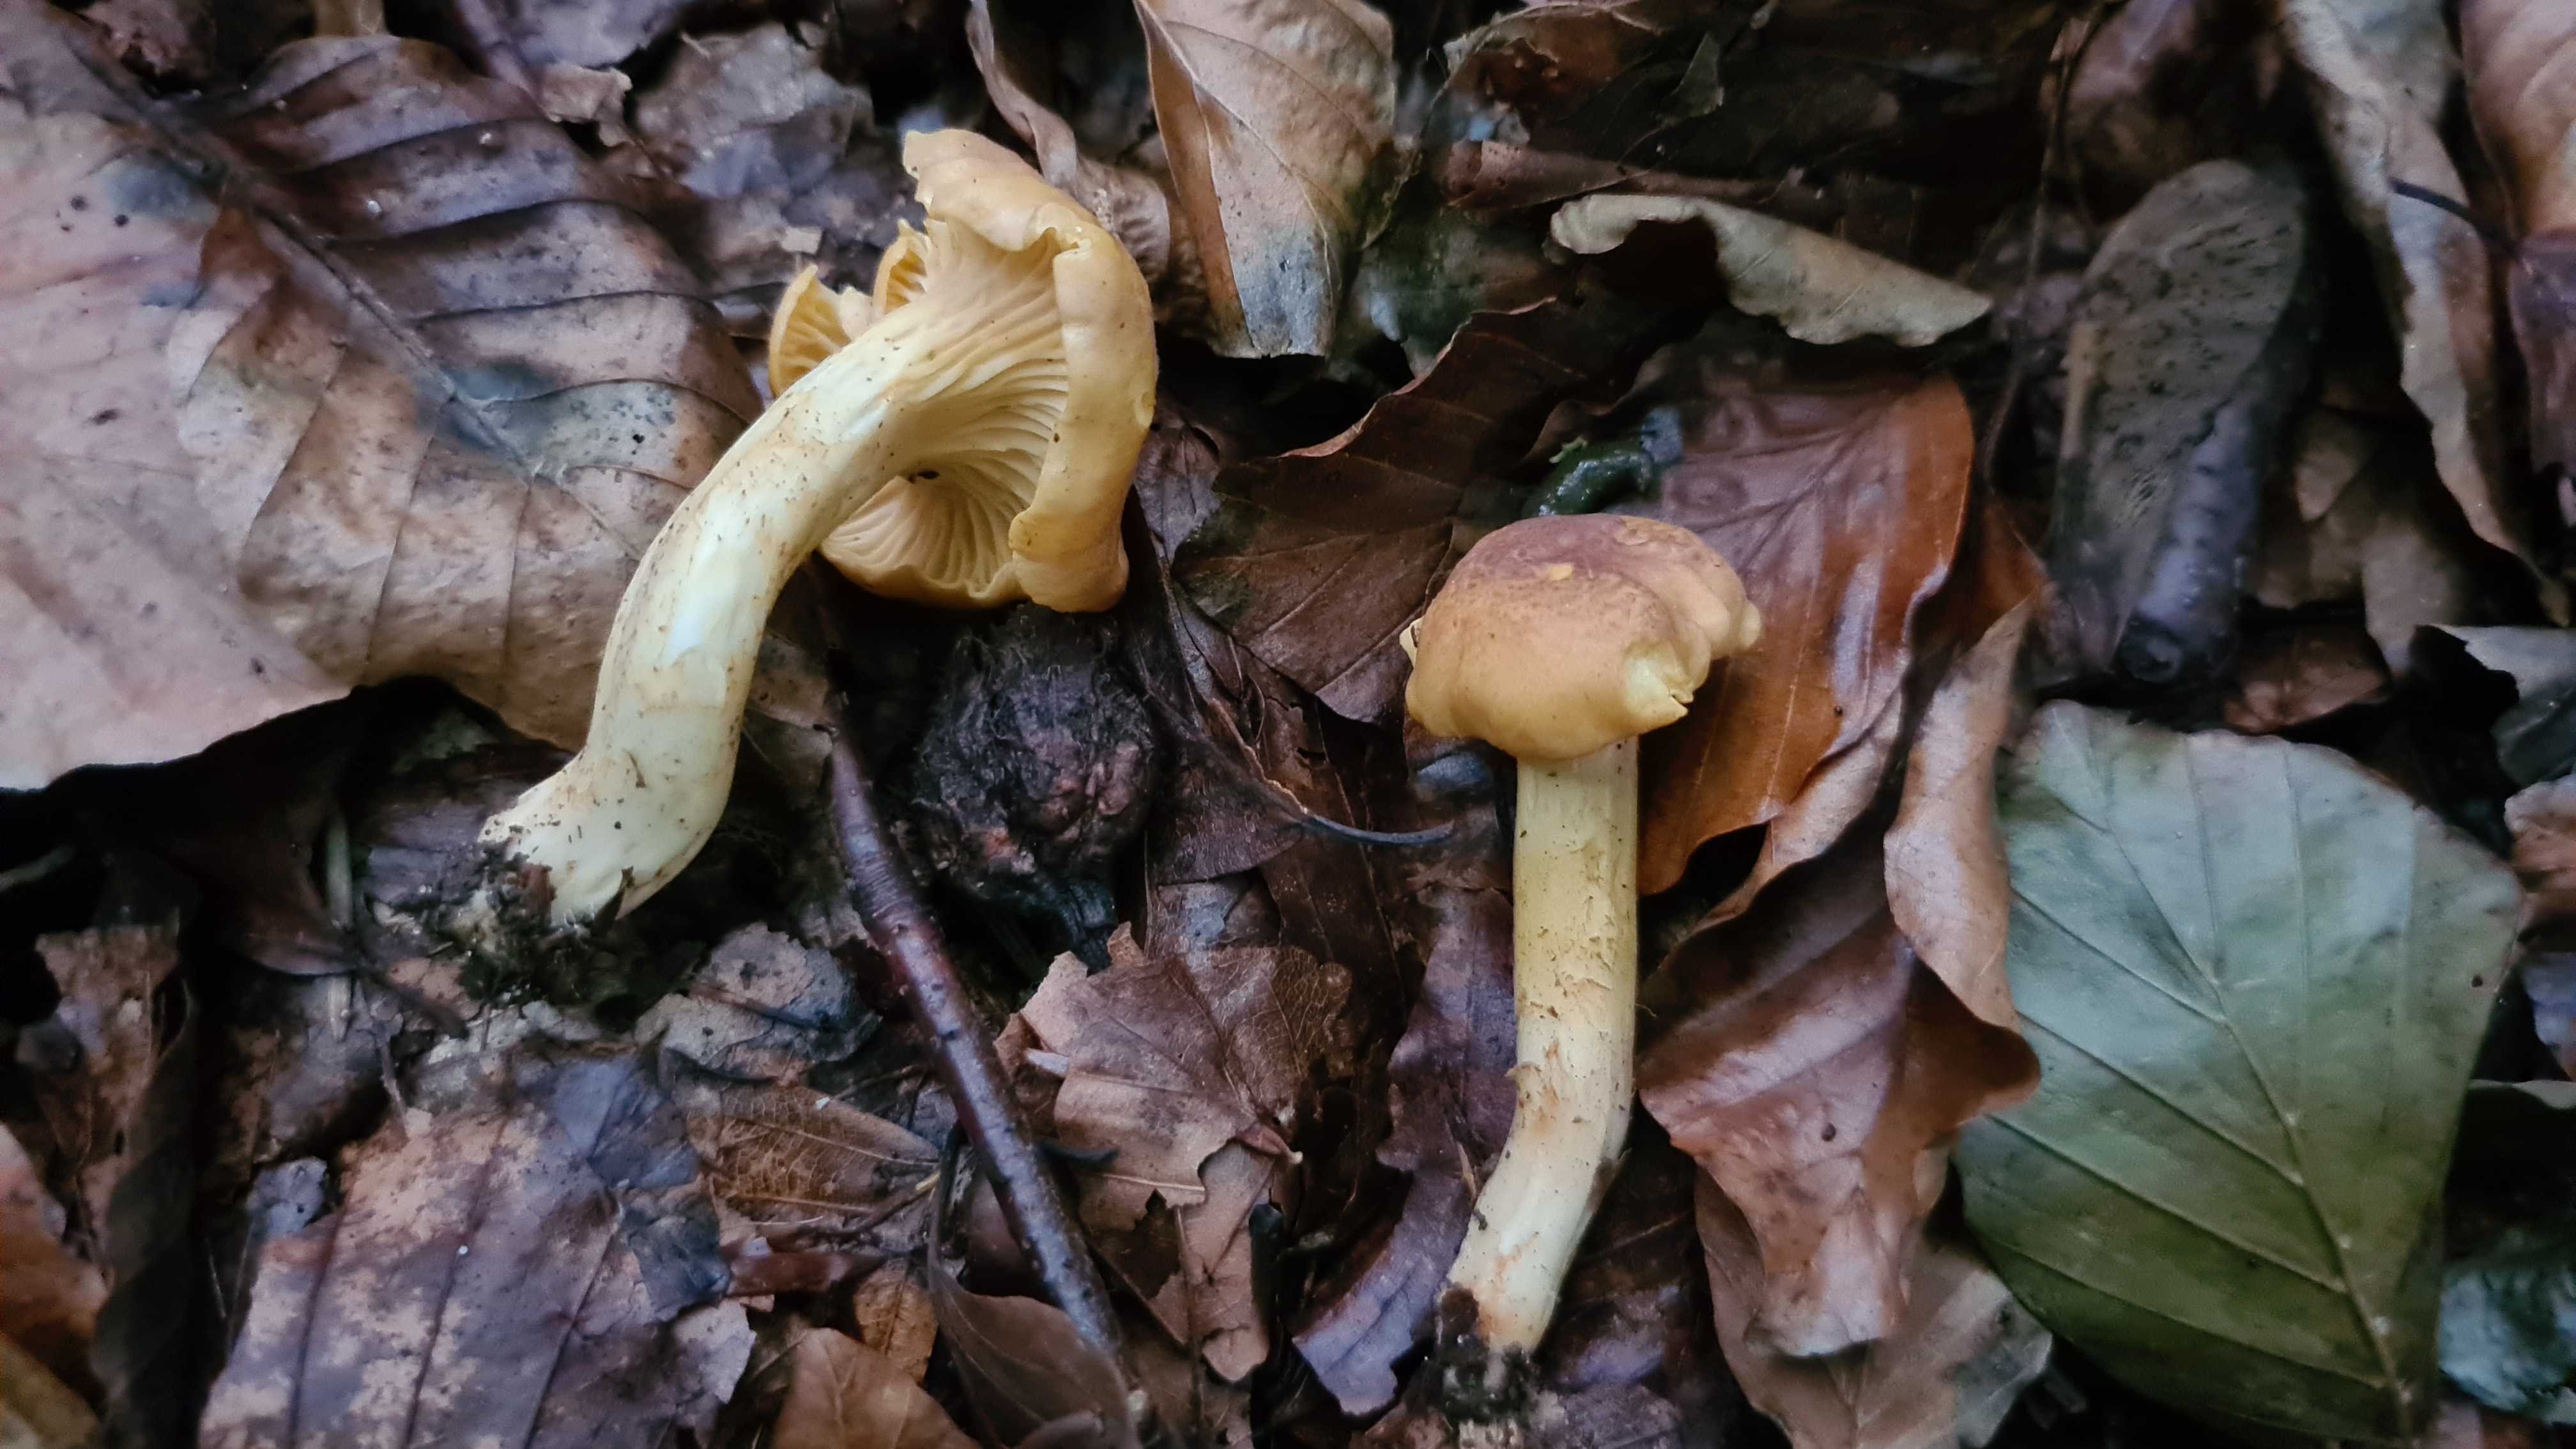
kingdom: Fungi
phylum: Basidiomycota
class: Agaricomycetes
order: Cantharellales
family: Hydnaceae
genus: Cantharellus
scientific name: Cantharellus amethysteus
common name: ametyst-kantarel
